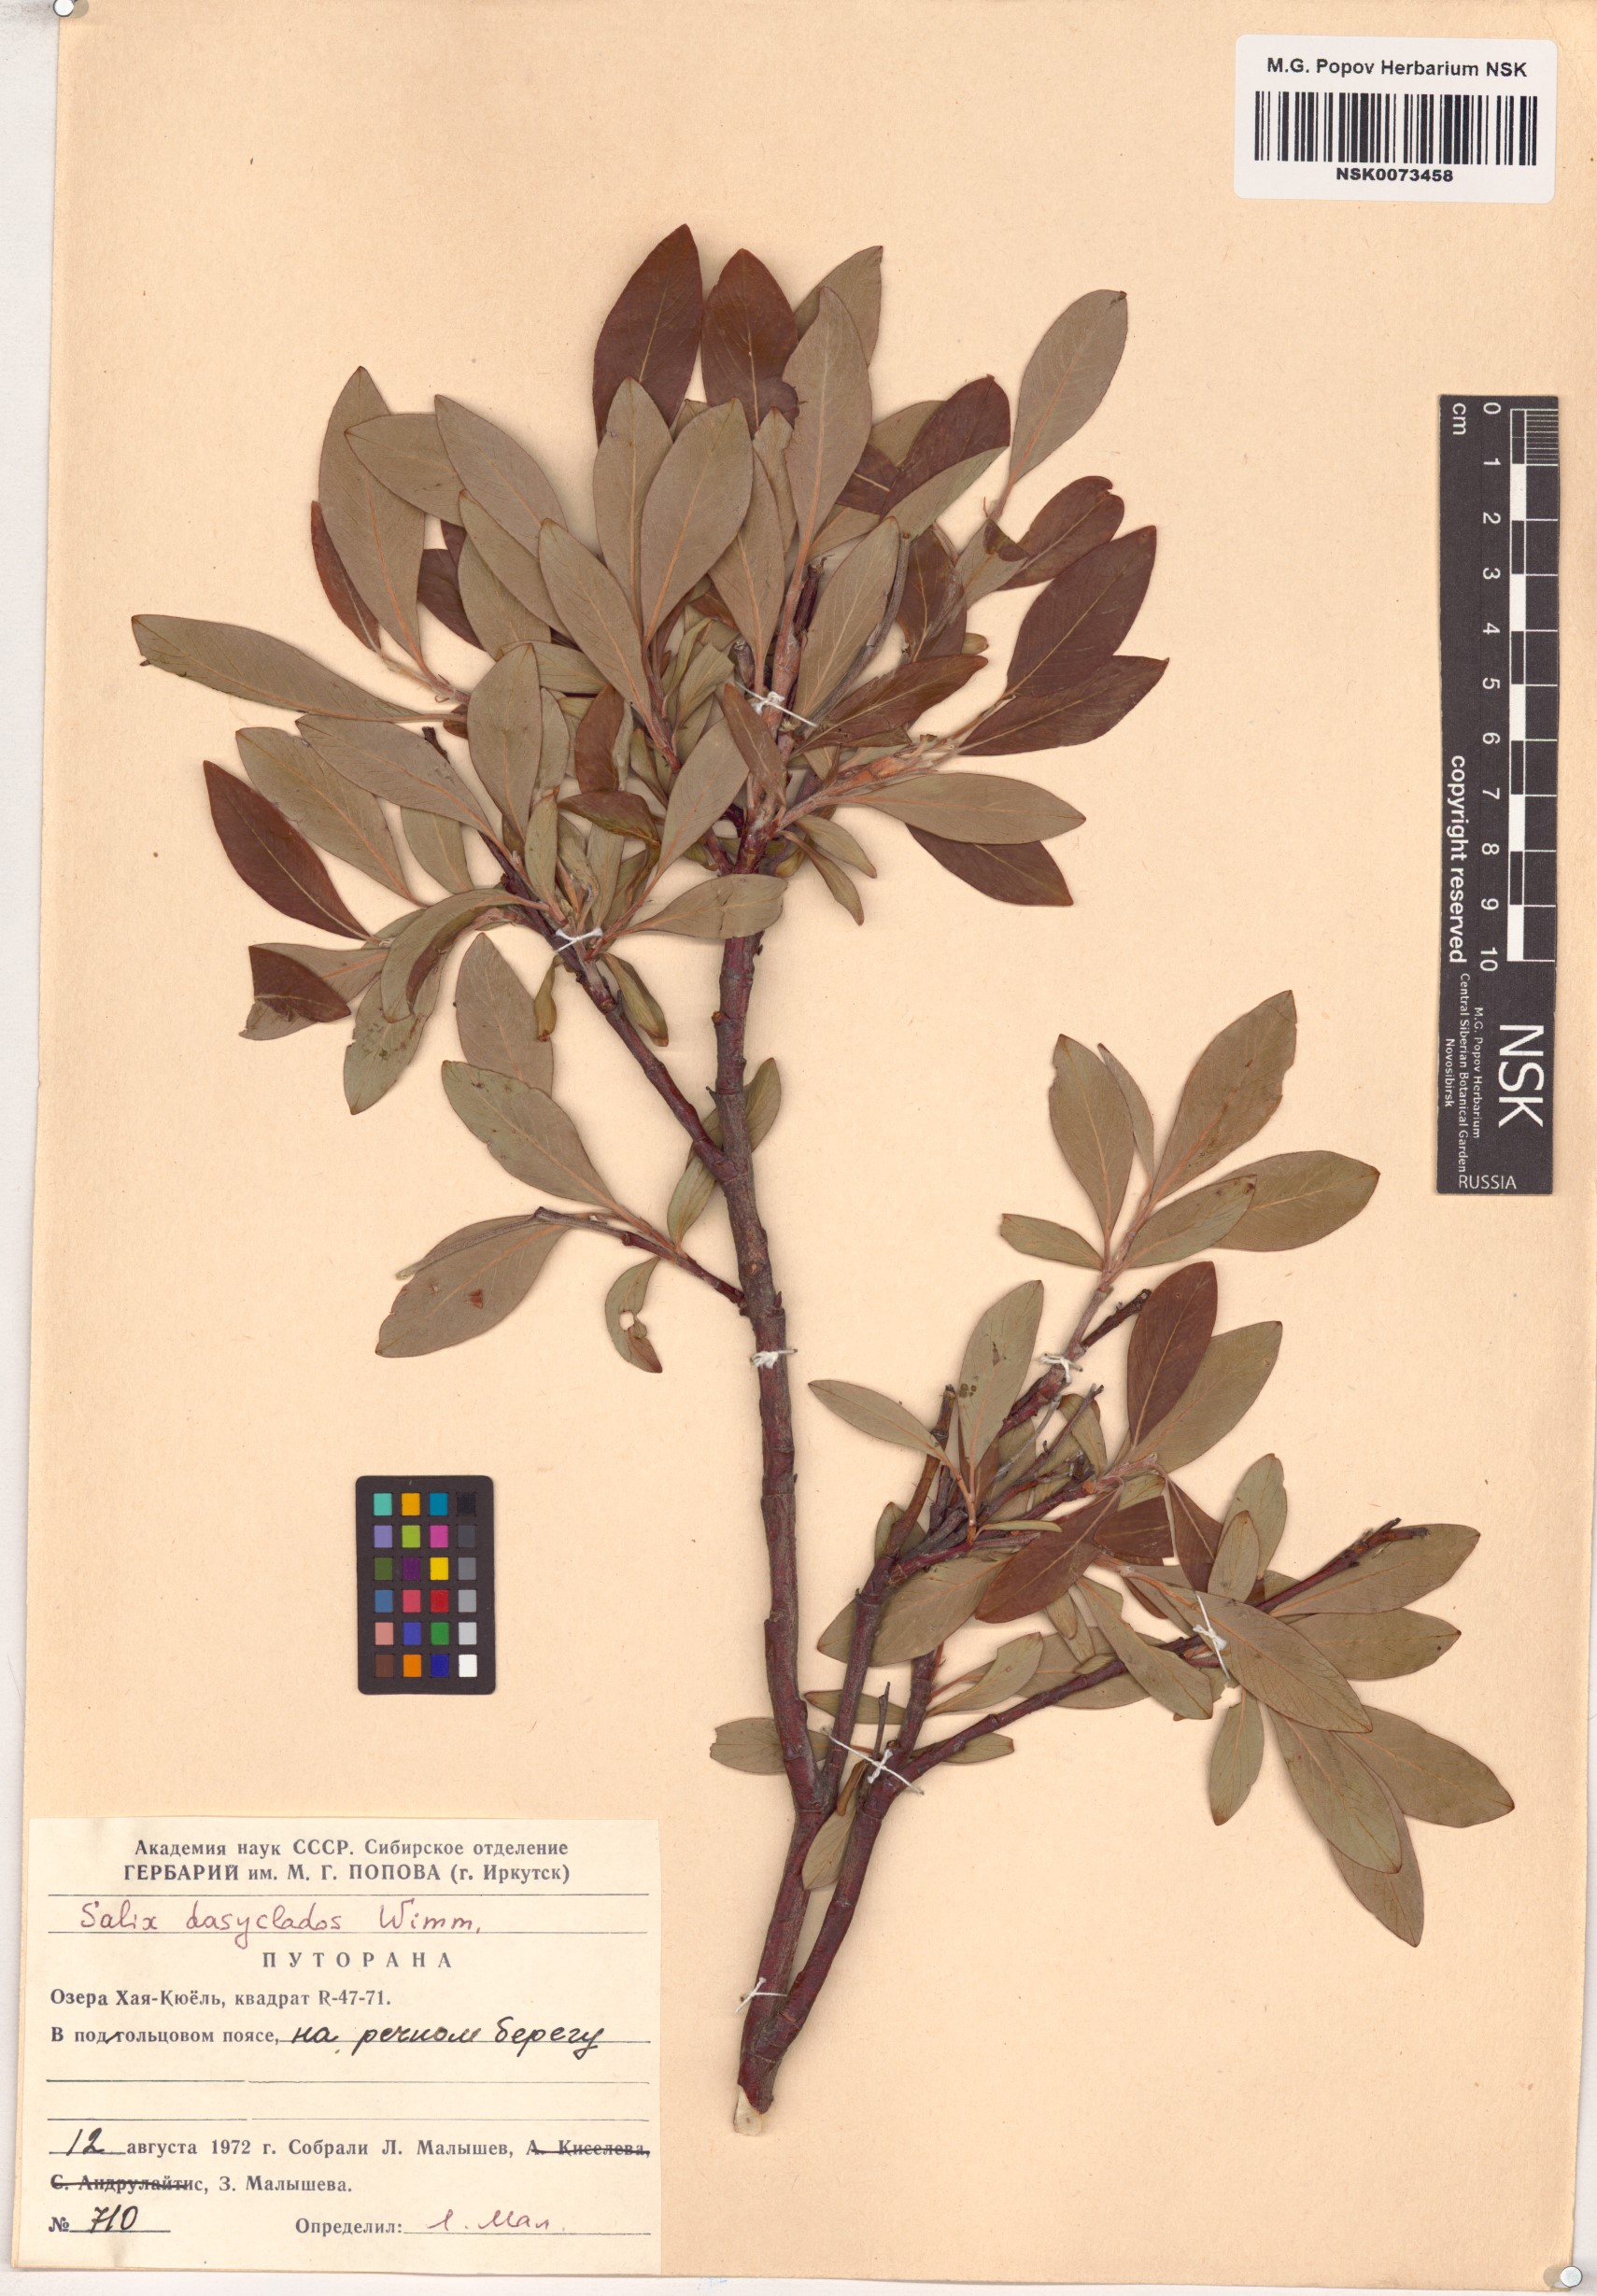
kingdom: Plantae
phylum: Tracheophyta
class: Magnoliopsida
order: Malpighiales
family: Salicaceae
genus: Salix
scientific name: Salix gmelinii
